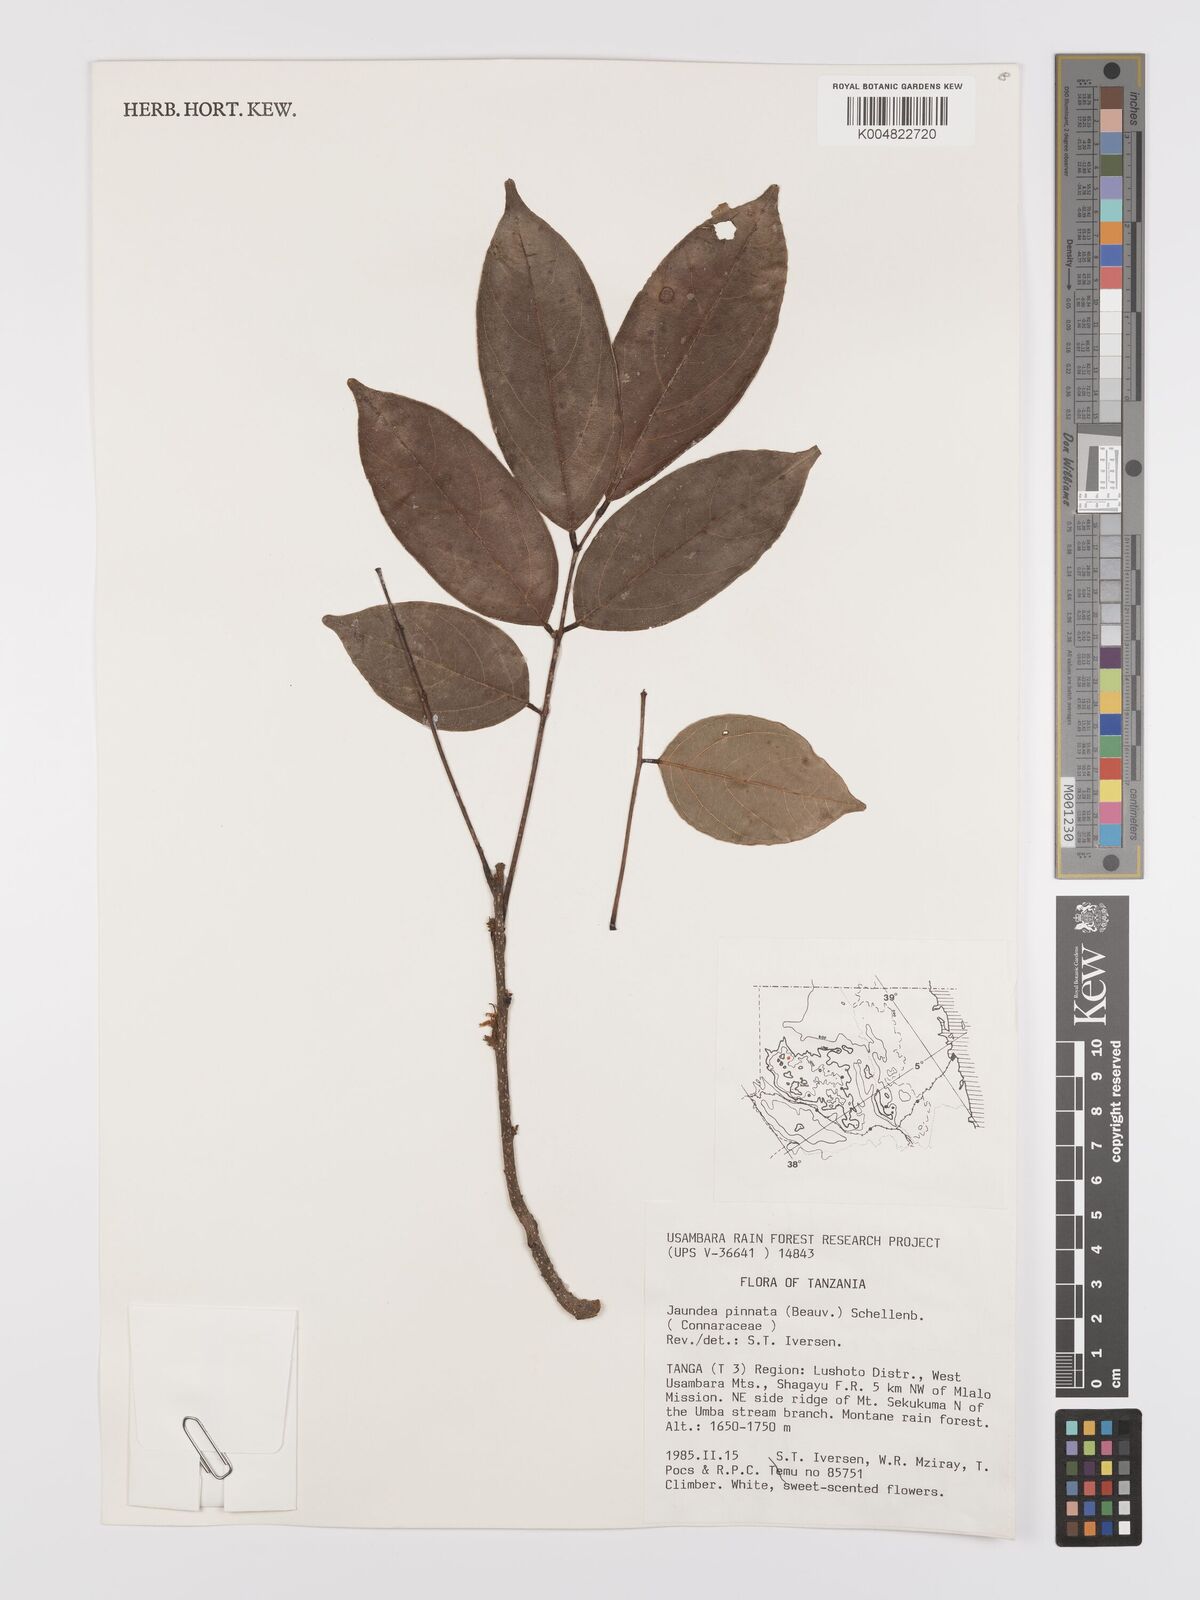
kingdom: Plantae
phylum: Tracheophyta
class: Magnoliopsida
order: Oxalidales
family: Connaraceae
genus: Rourea
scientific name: Rourea pinnata
